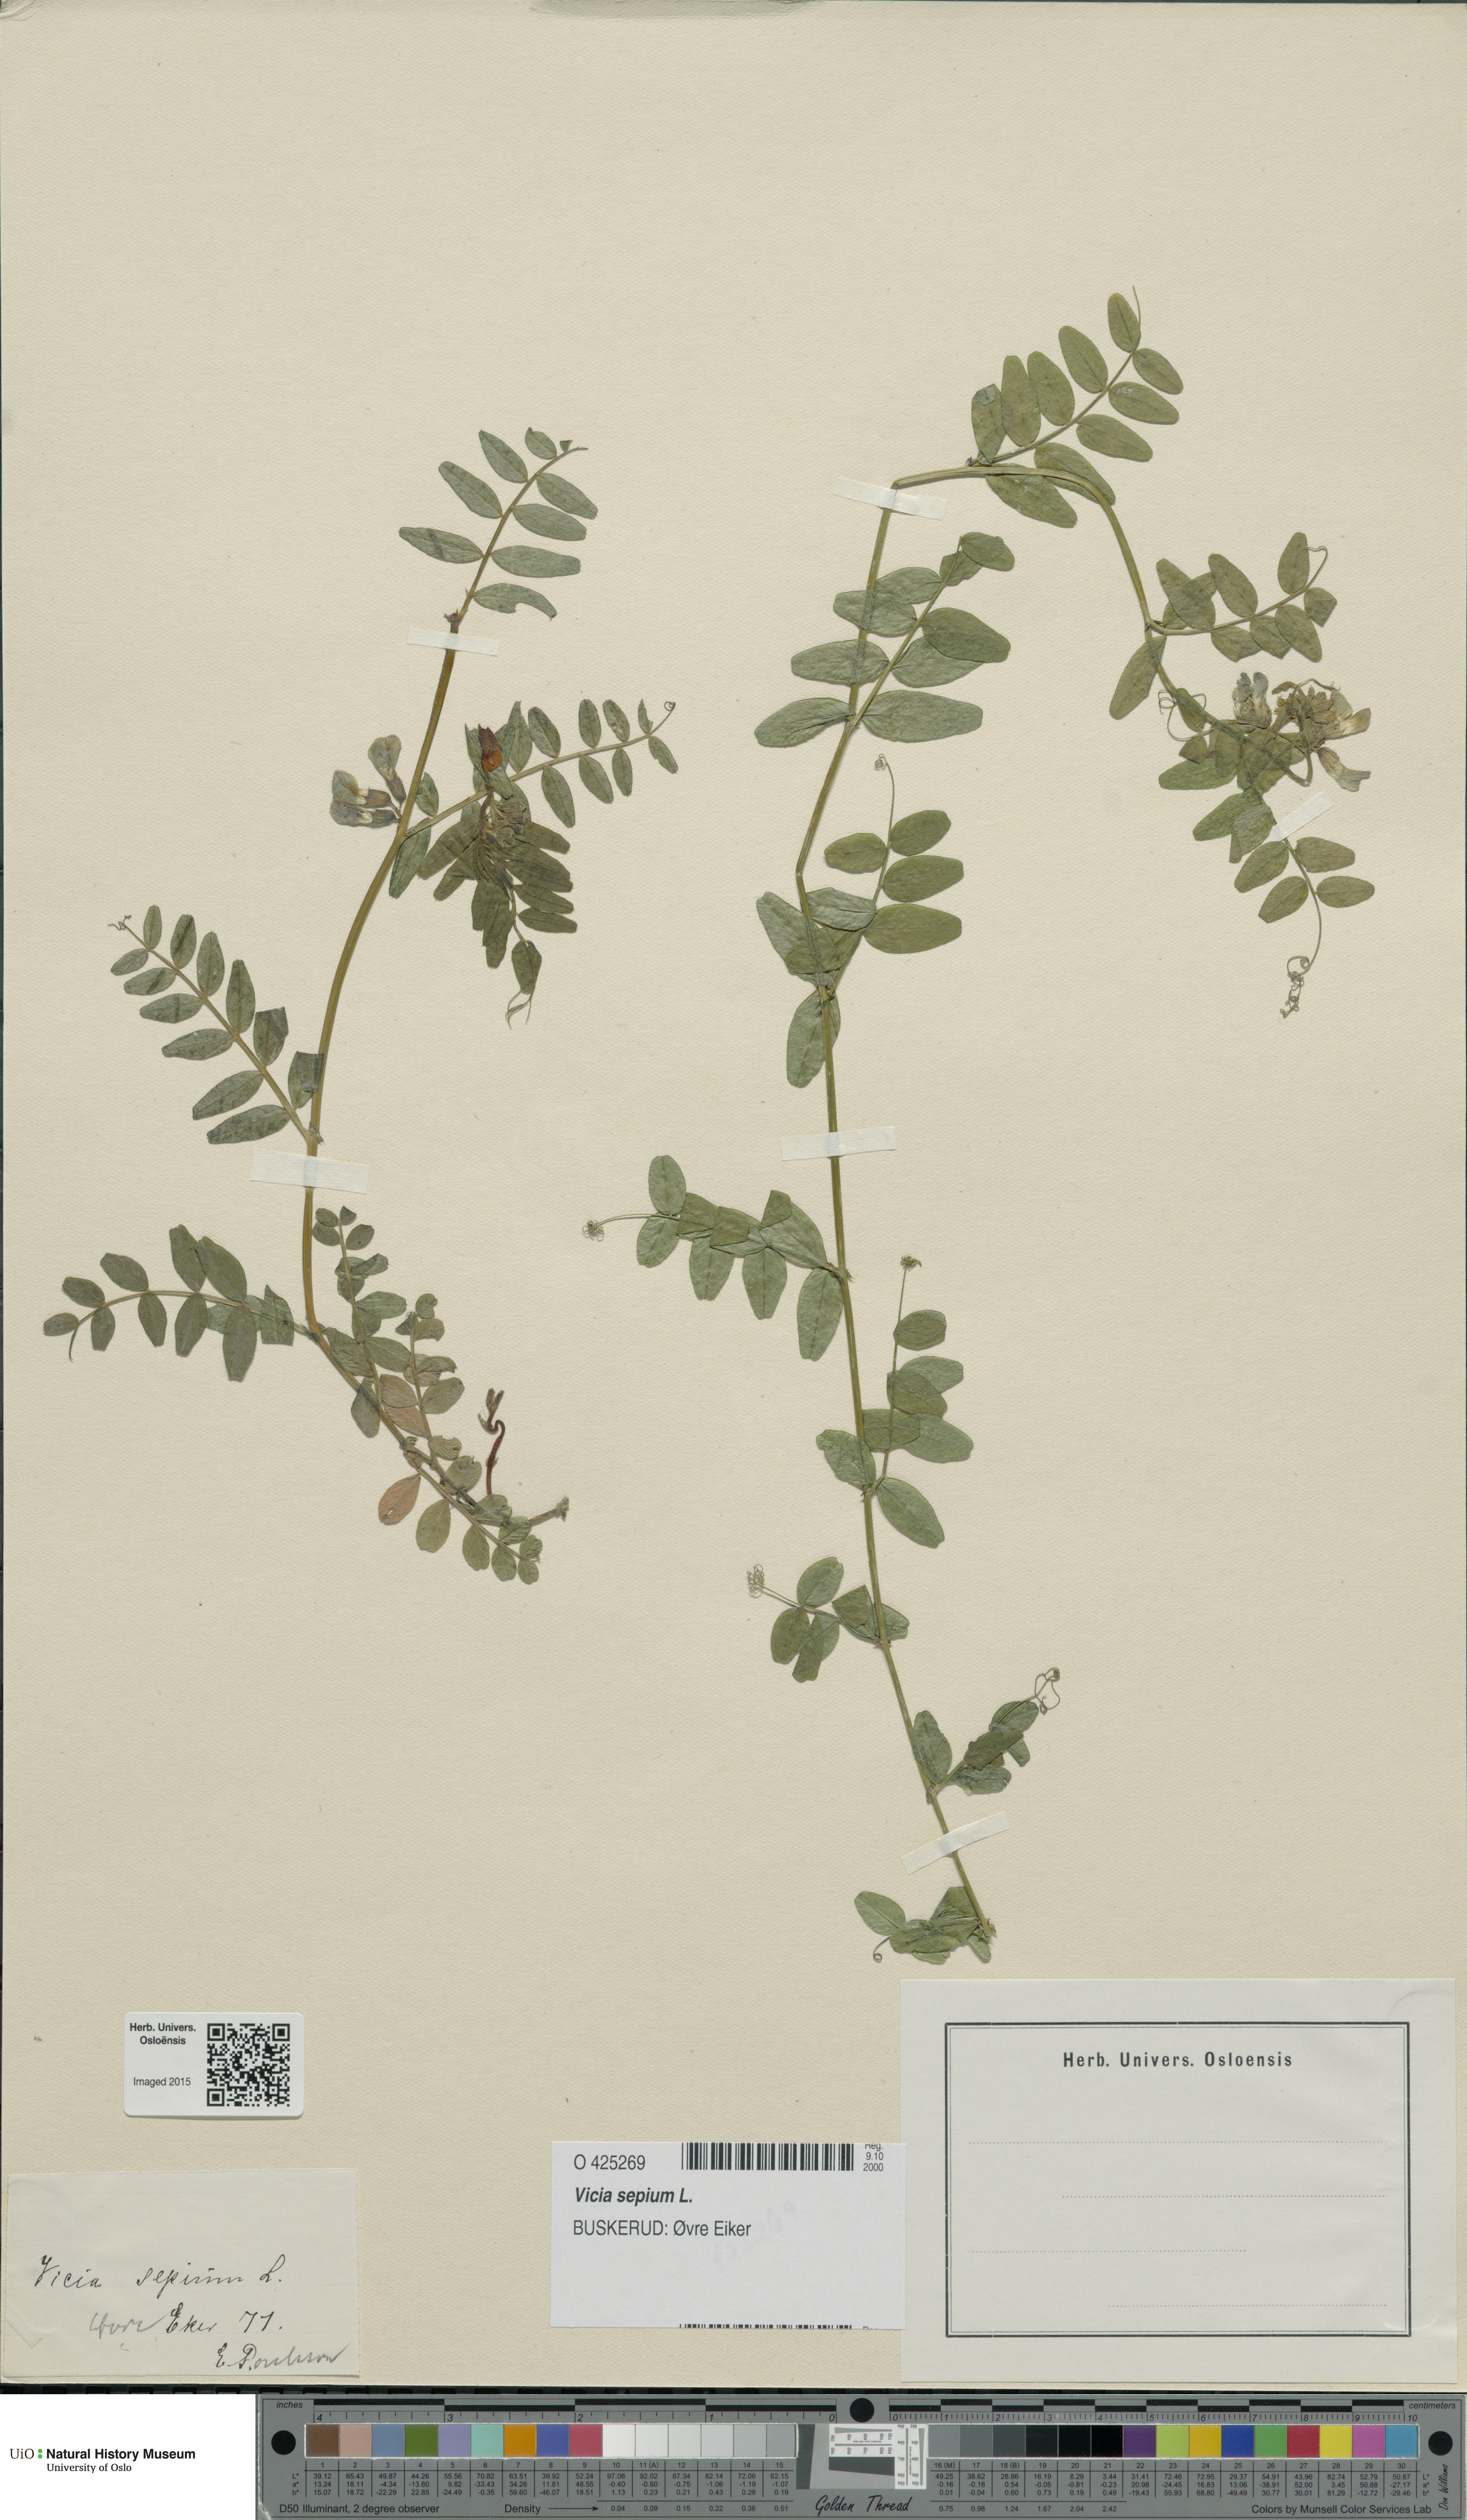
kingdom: Plantae
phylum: Tracheophyta
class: Magnoliopsida
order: Fabales
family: Fabaceae
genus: Vicia
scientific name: Vicia sepium
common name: Bush vetch
